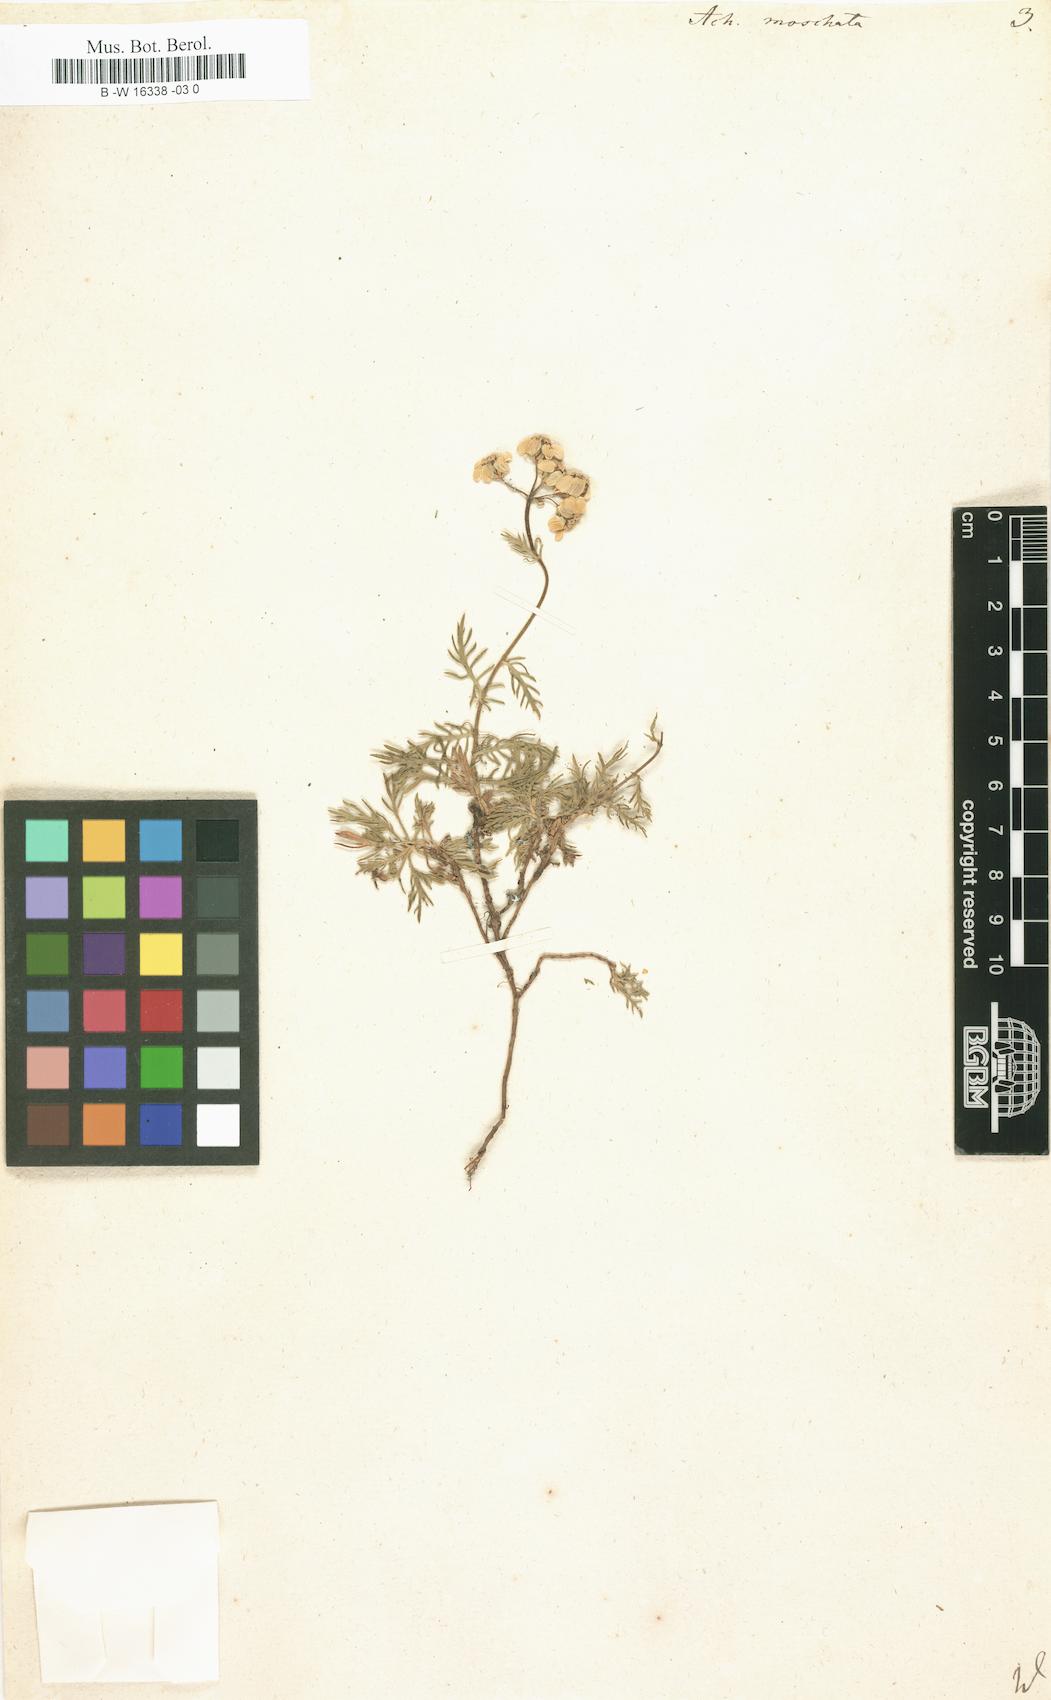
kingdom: Plantae
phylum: Tracheophyta
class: Magnoliopsida
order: Asterales
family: Asteraceae
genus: Achillea
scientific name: Achillea erba-rotta
